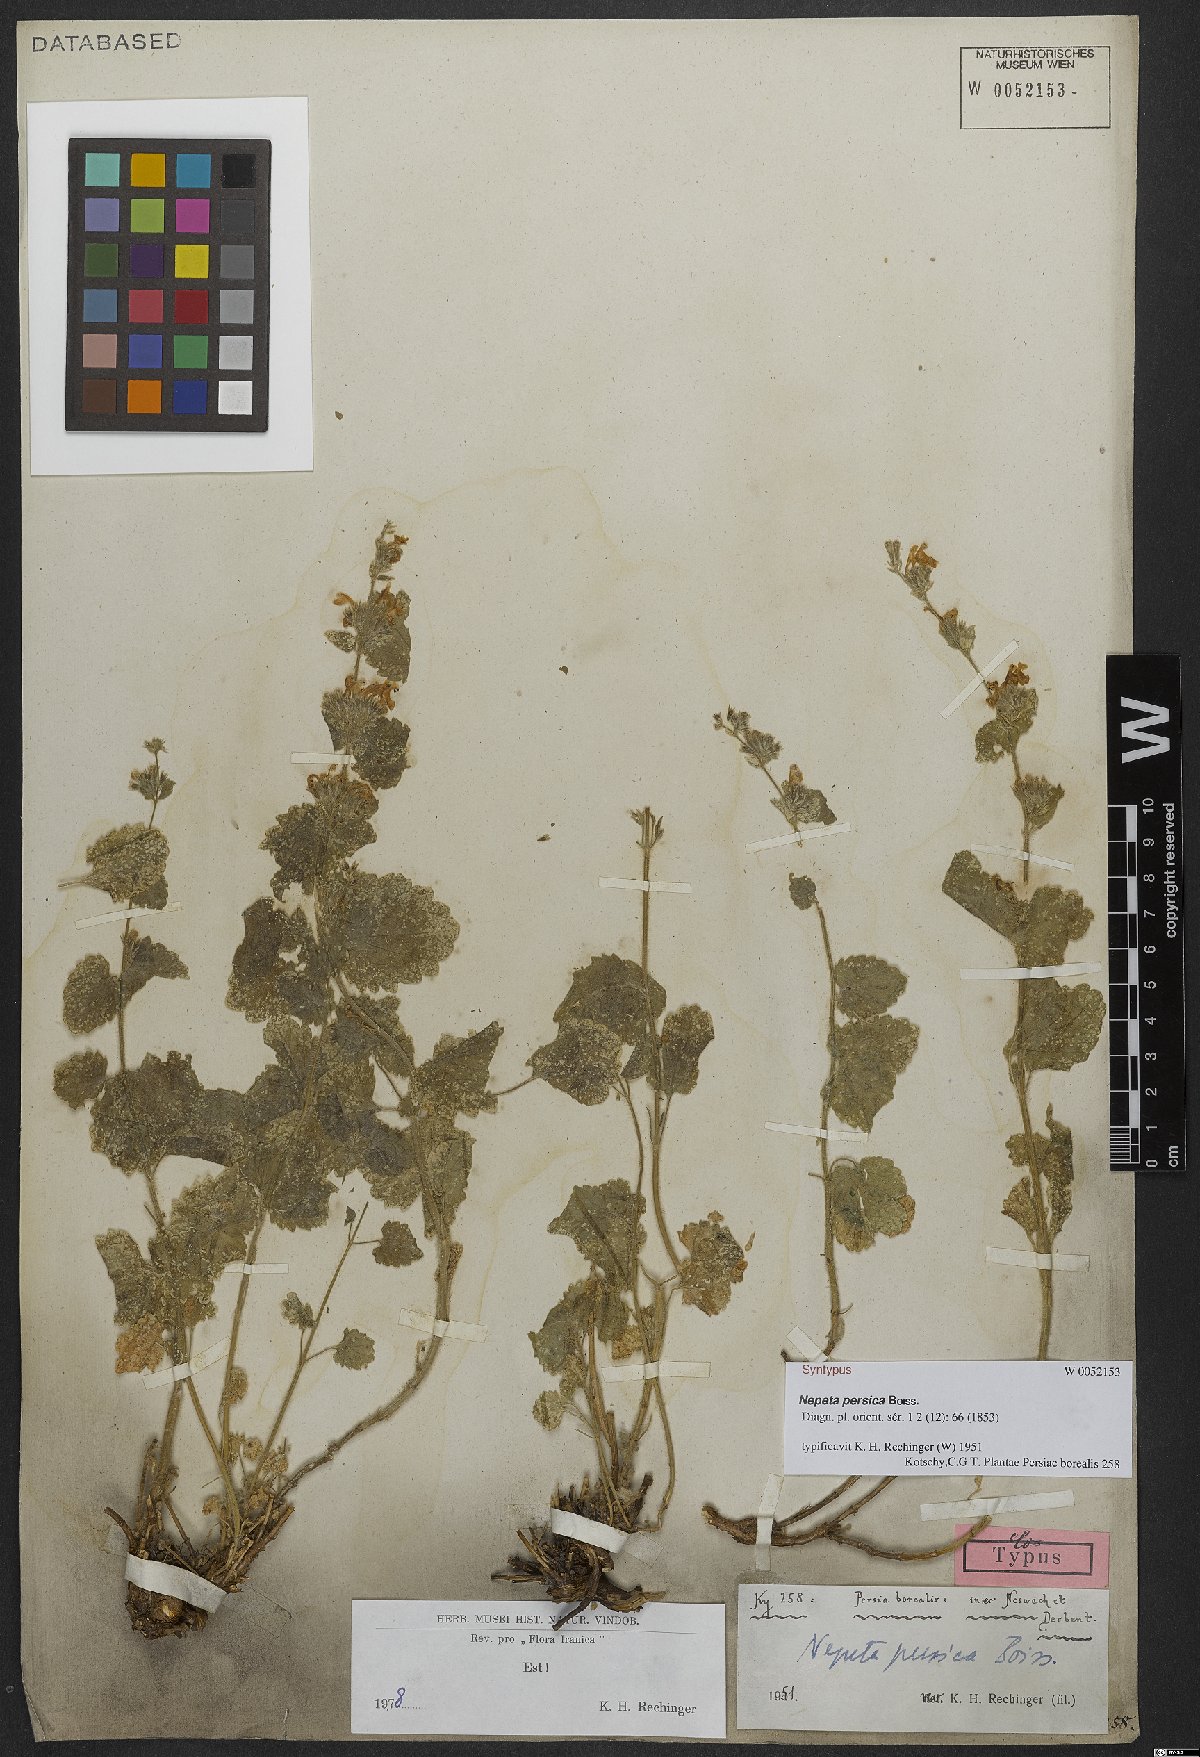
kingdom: Plantae
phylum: Tracheophyta
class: Magnoliopsida
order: Lamiales
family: Lamiaceae
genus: Nepeta
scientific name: Nepeta persica
